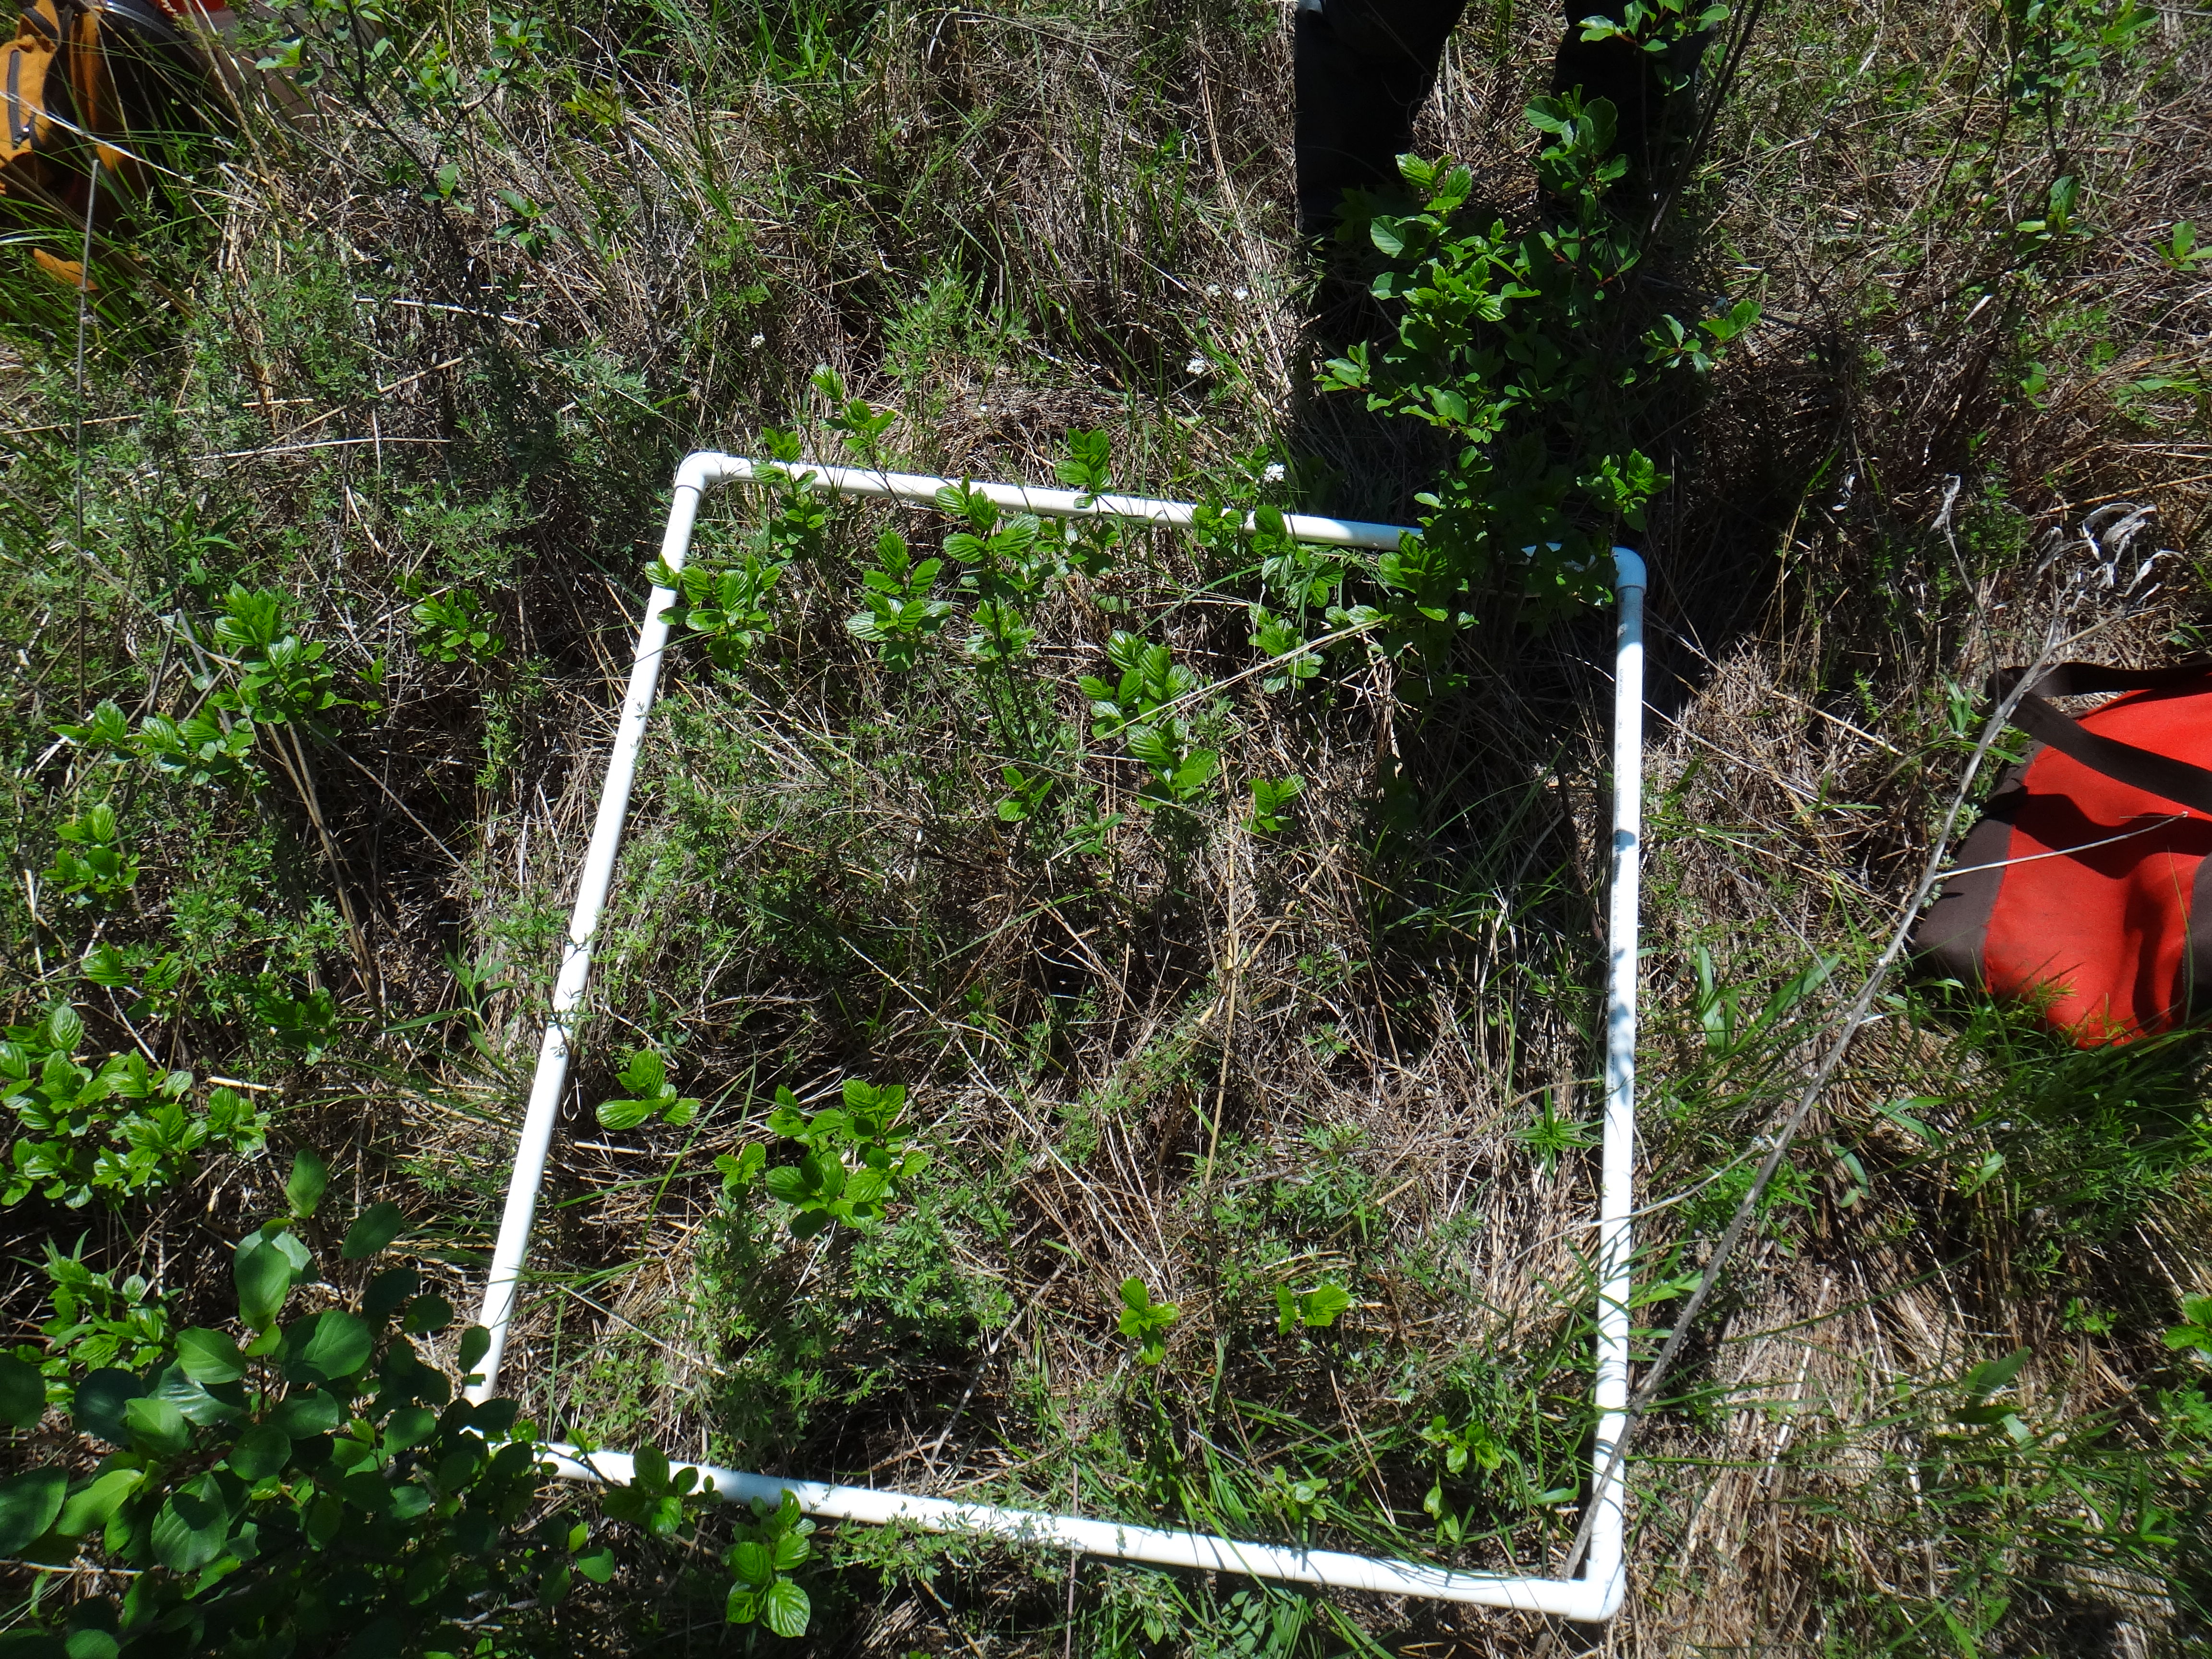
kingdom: Plantae
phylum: Tracheophyta
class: Magnoliopsida
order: Asterales
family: Asteraceae
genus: Solidago
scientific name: Solidago ohioensis
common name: Ohio goldenrod
